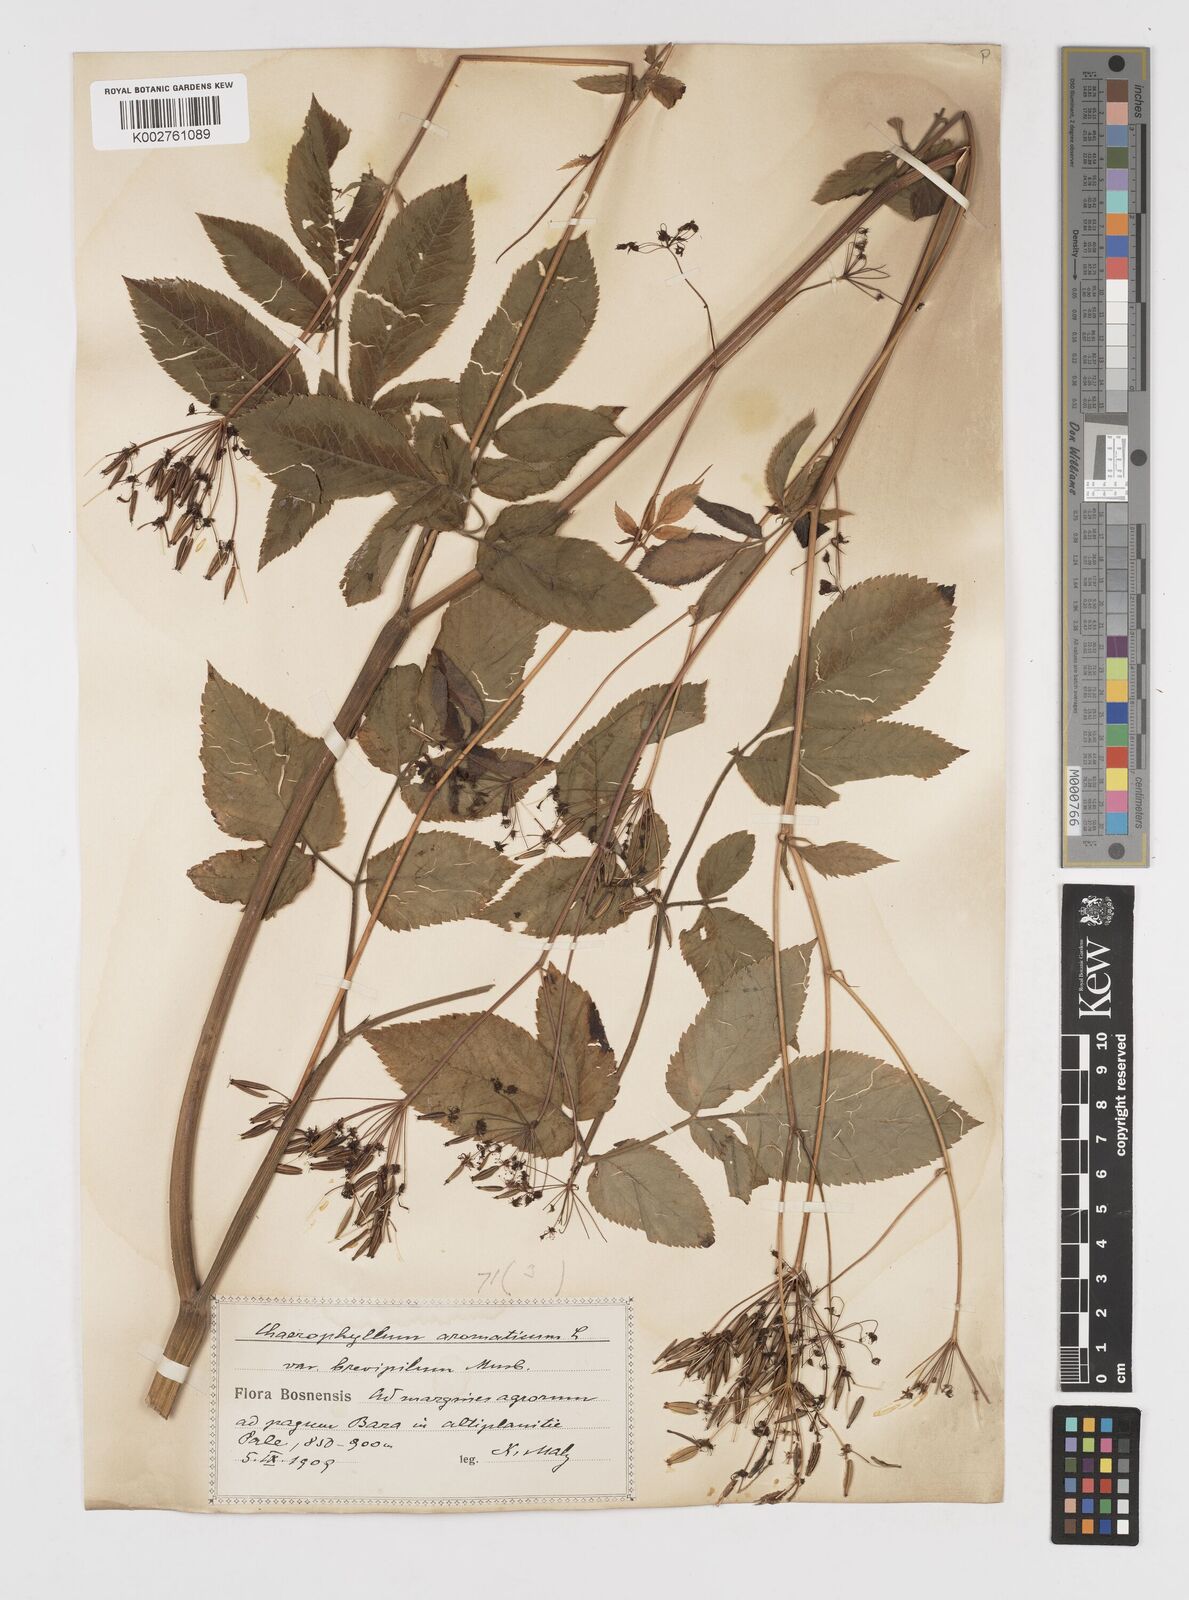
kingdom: Plantae
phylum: Tracheophyta
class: Magnoliopsida
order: Apiales
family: Apiaceae
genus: Chaerophyllum
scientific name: Chaerophyllum aromaticum
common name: Broadleaf chervil
